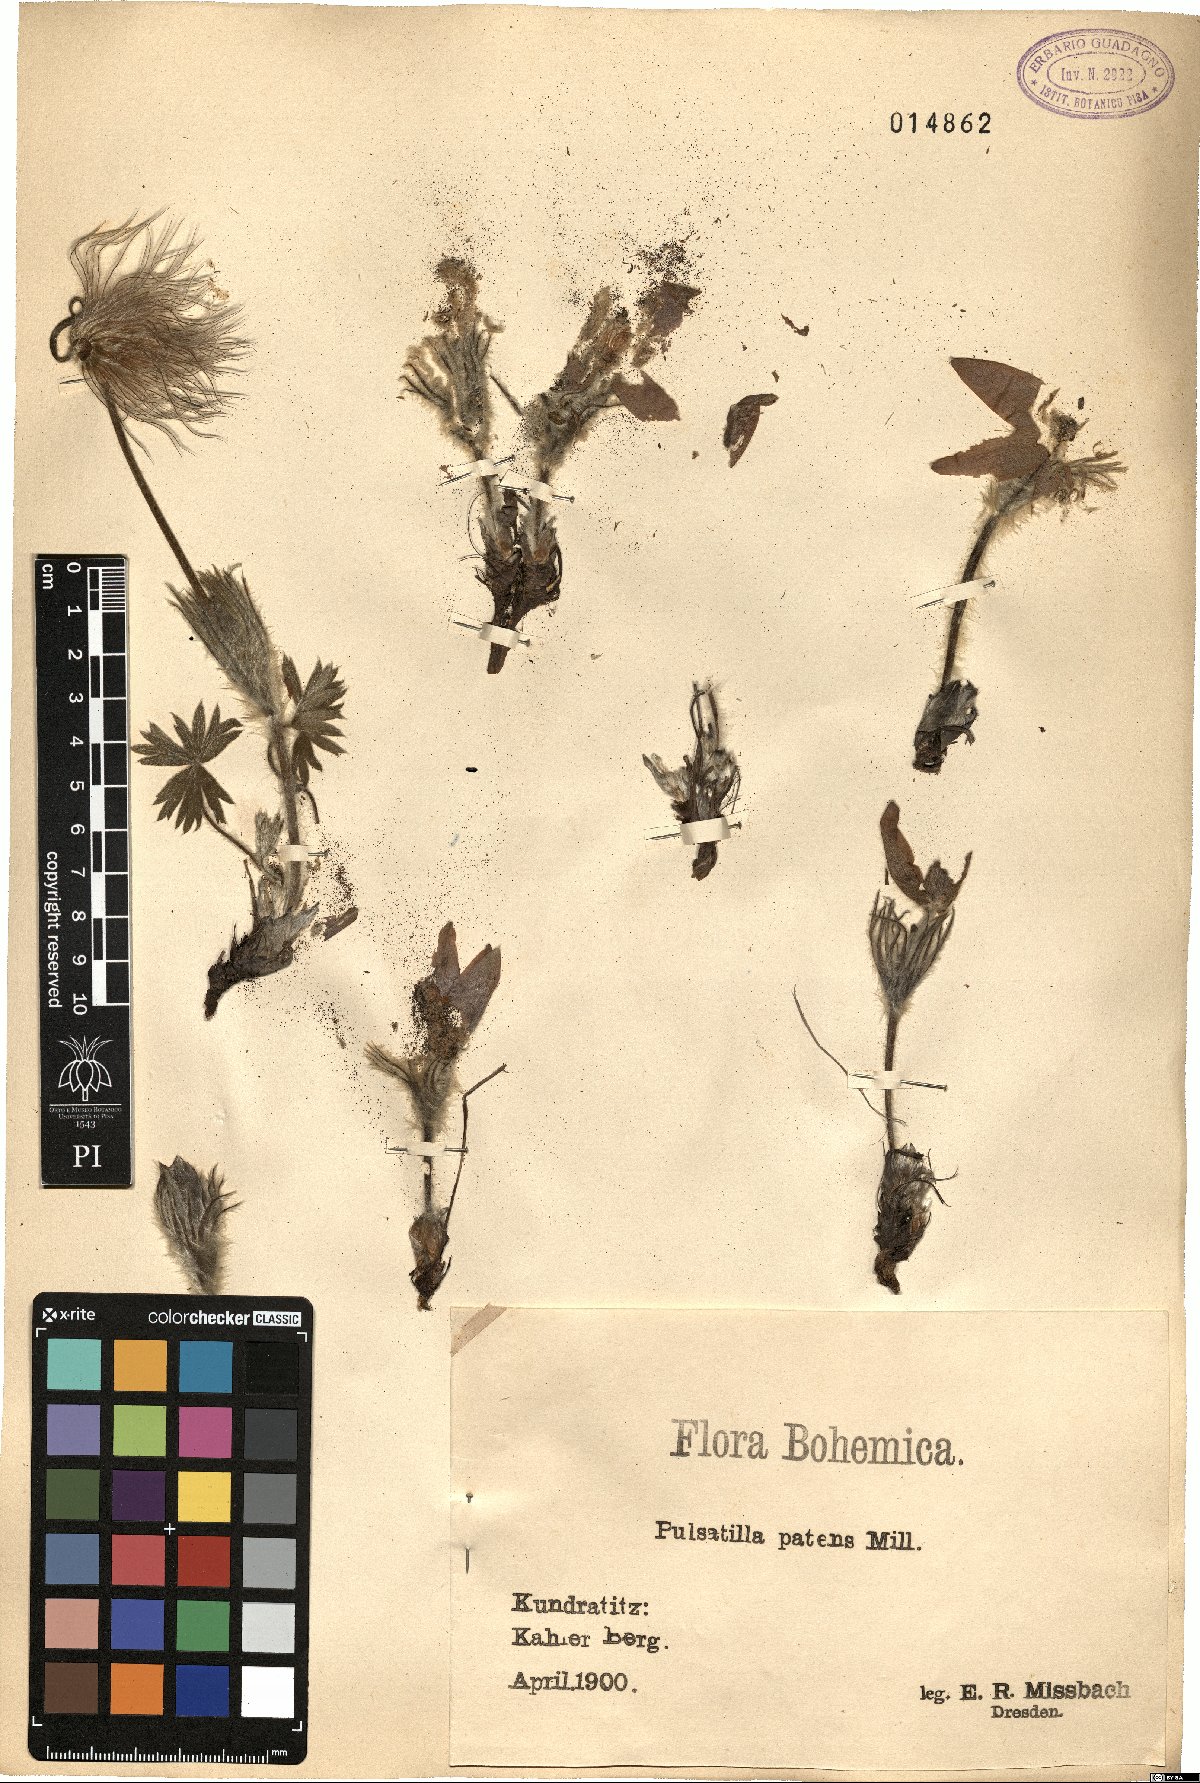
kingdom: Plantae
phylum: Tracheophyta
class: Magnoliopsida
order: Ranunculales
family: Ranunculaceae
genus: Pulsatilla
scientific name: Pulsatilla patens
